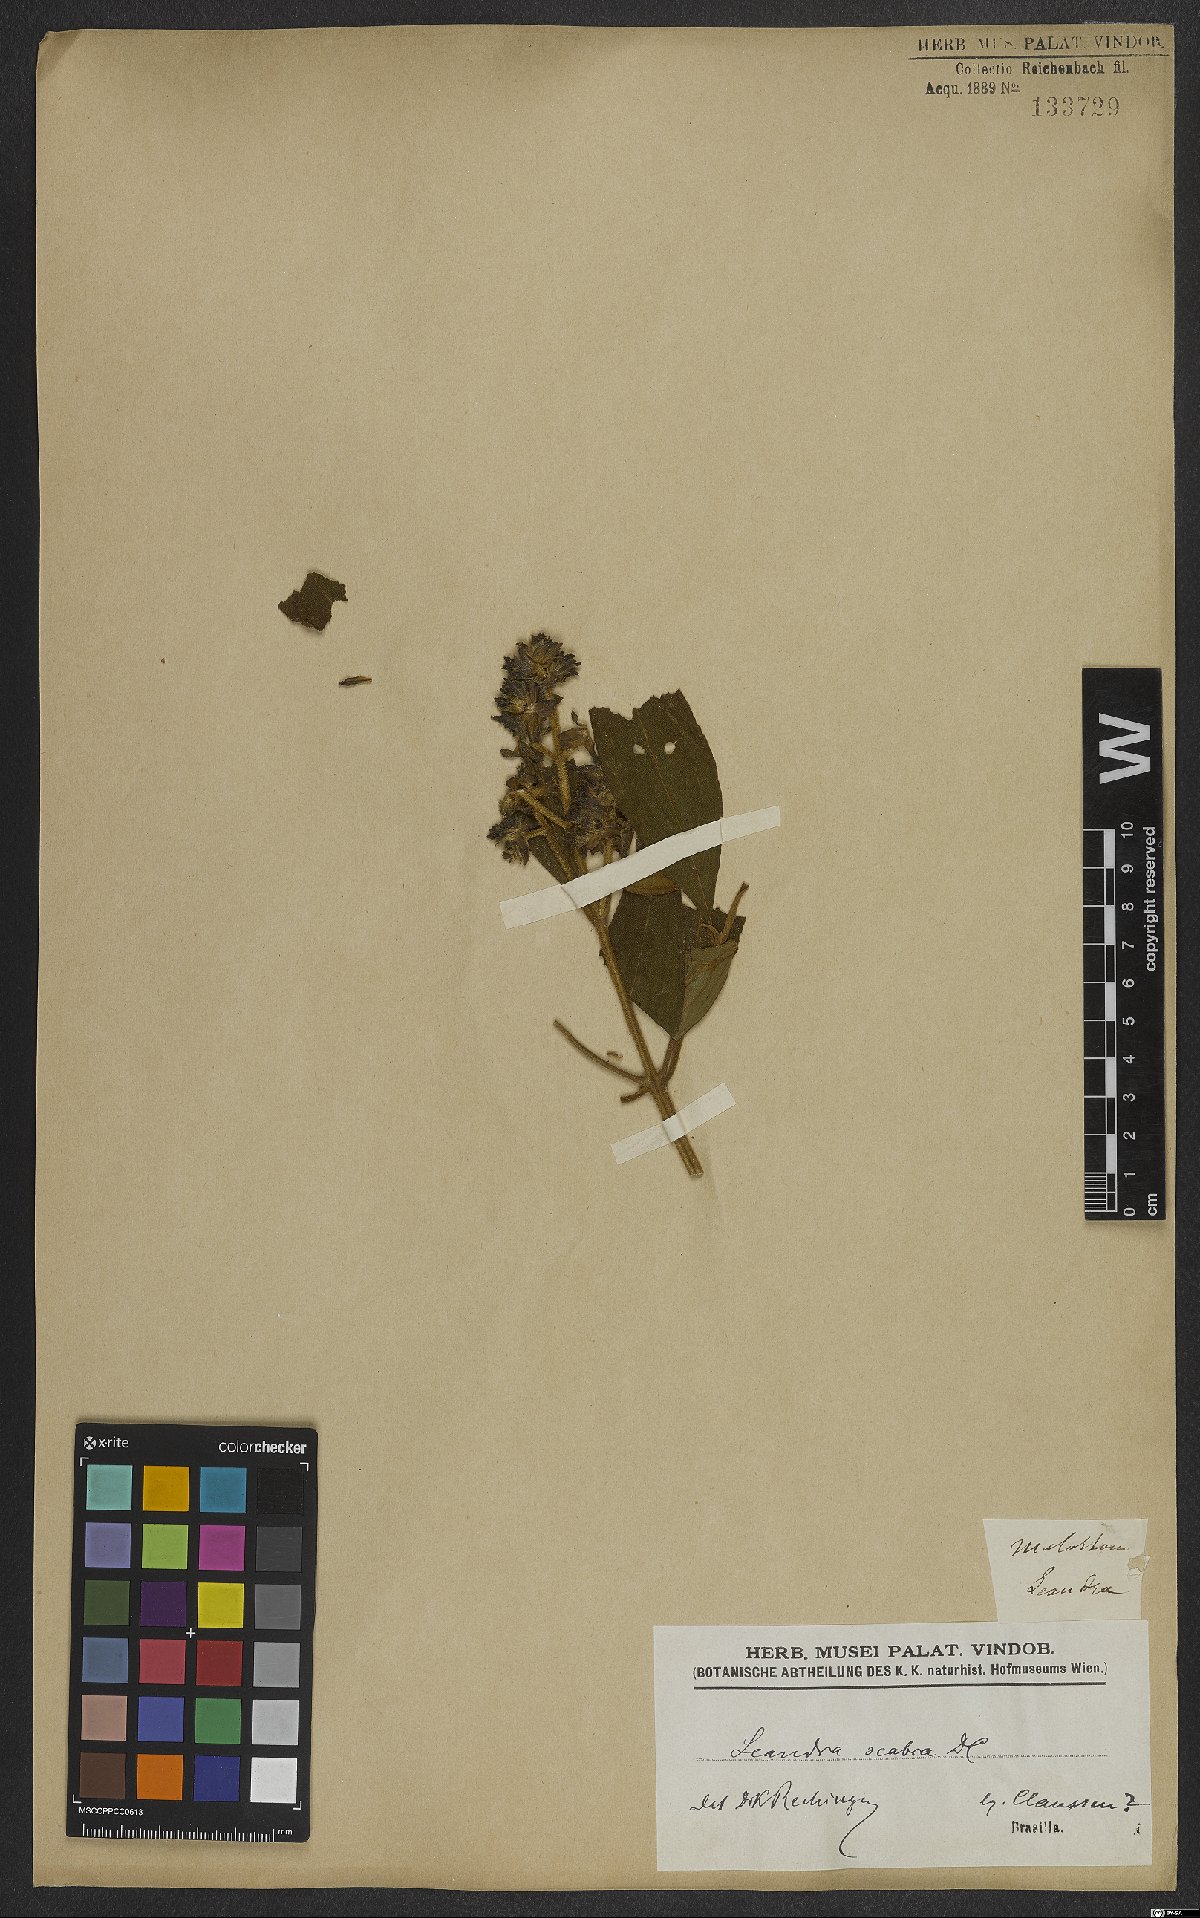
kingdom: Plantae
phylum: Tracheophyta
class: Magnoliopsida
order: Myrtales
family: Melastomataceae
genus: Miconia
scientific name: Miconia melastomoides
